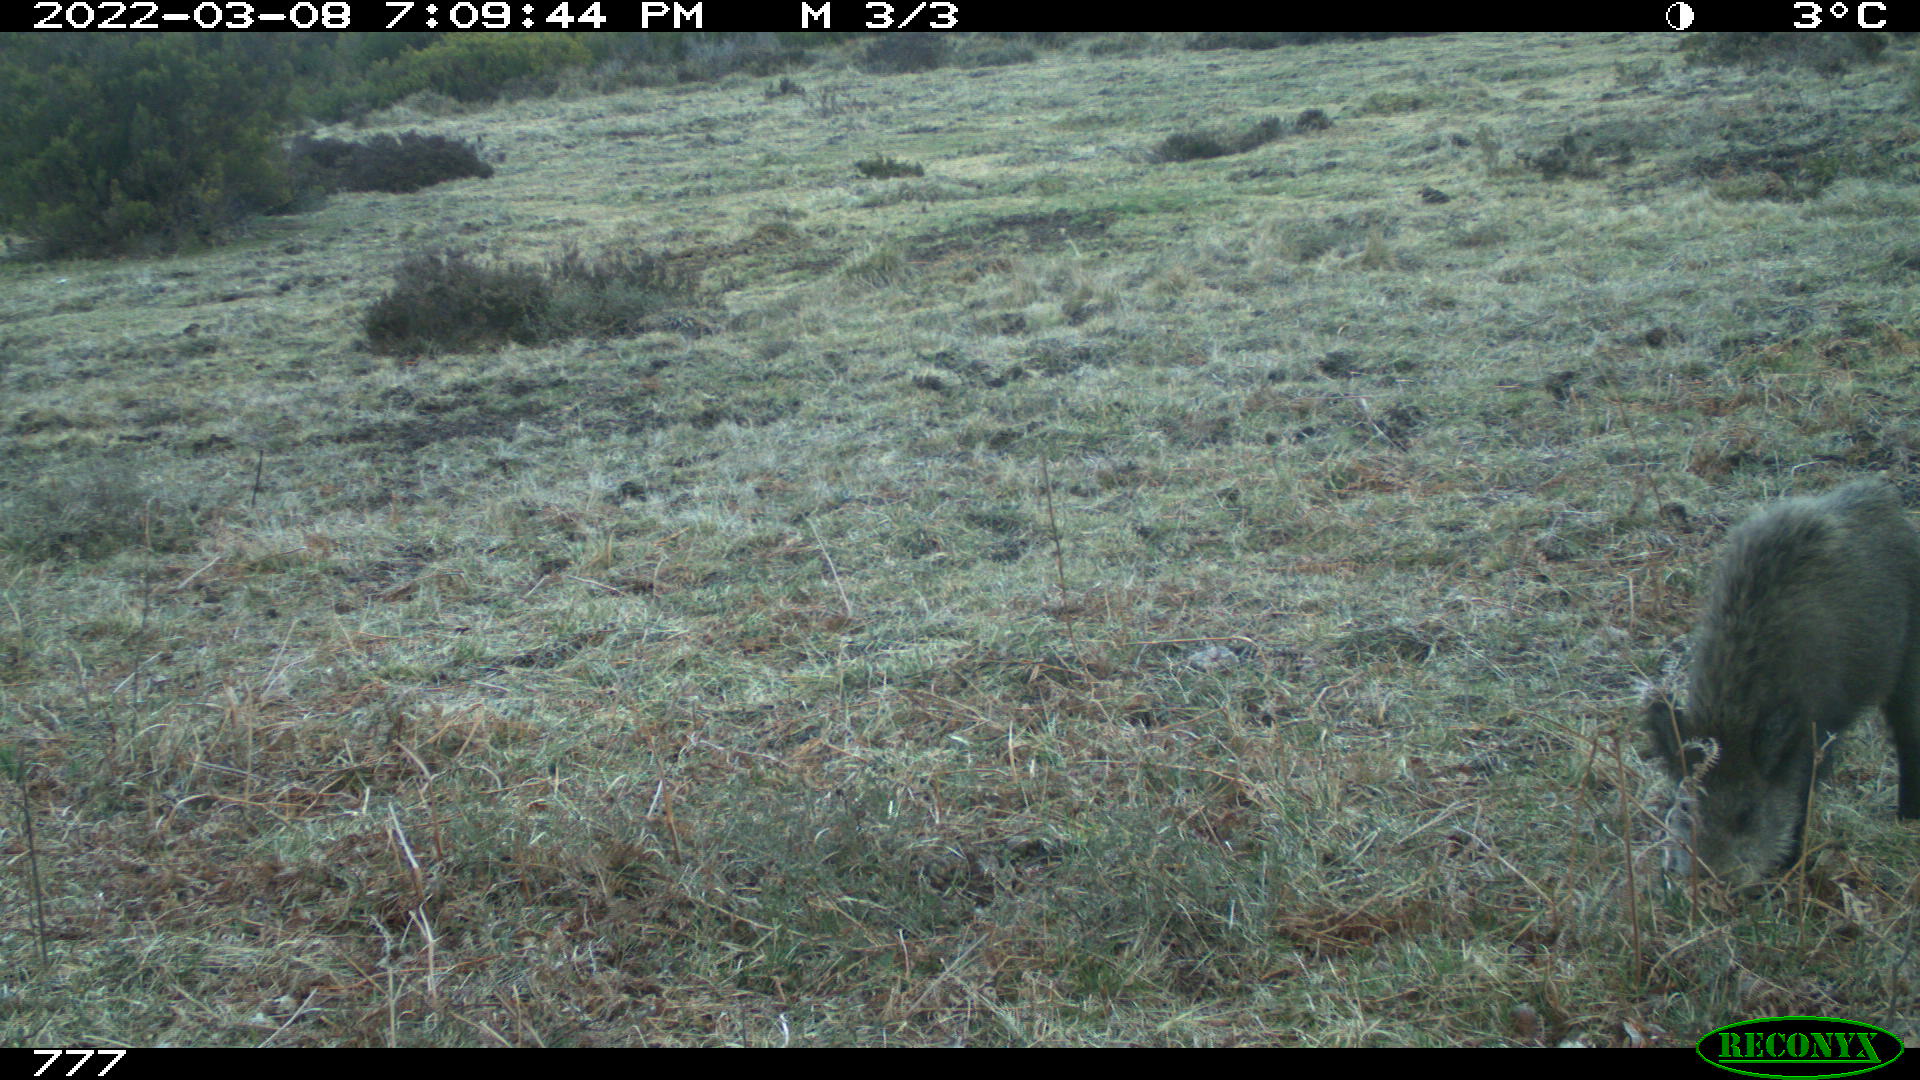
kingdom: Animalia
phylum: Chordata
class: Mammalia
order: Artiodactyla
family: Suidae
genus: Sus
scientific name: Sus scrofa
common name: Wild boar
